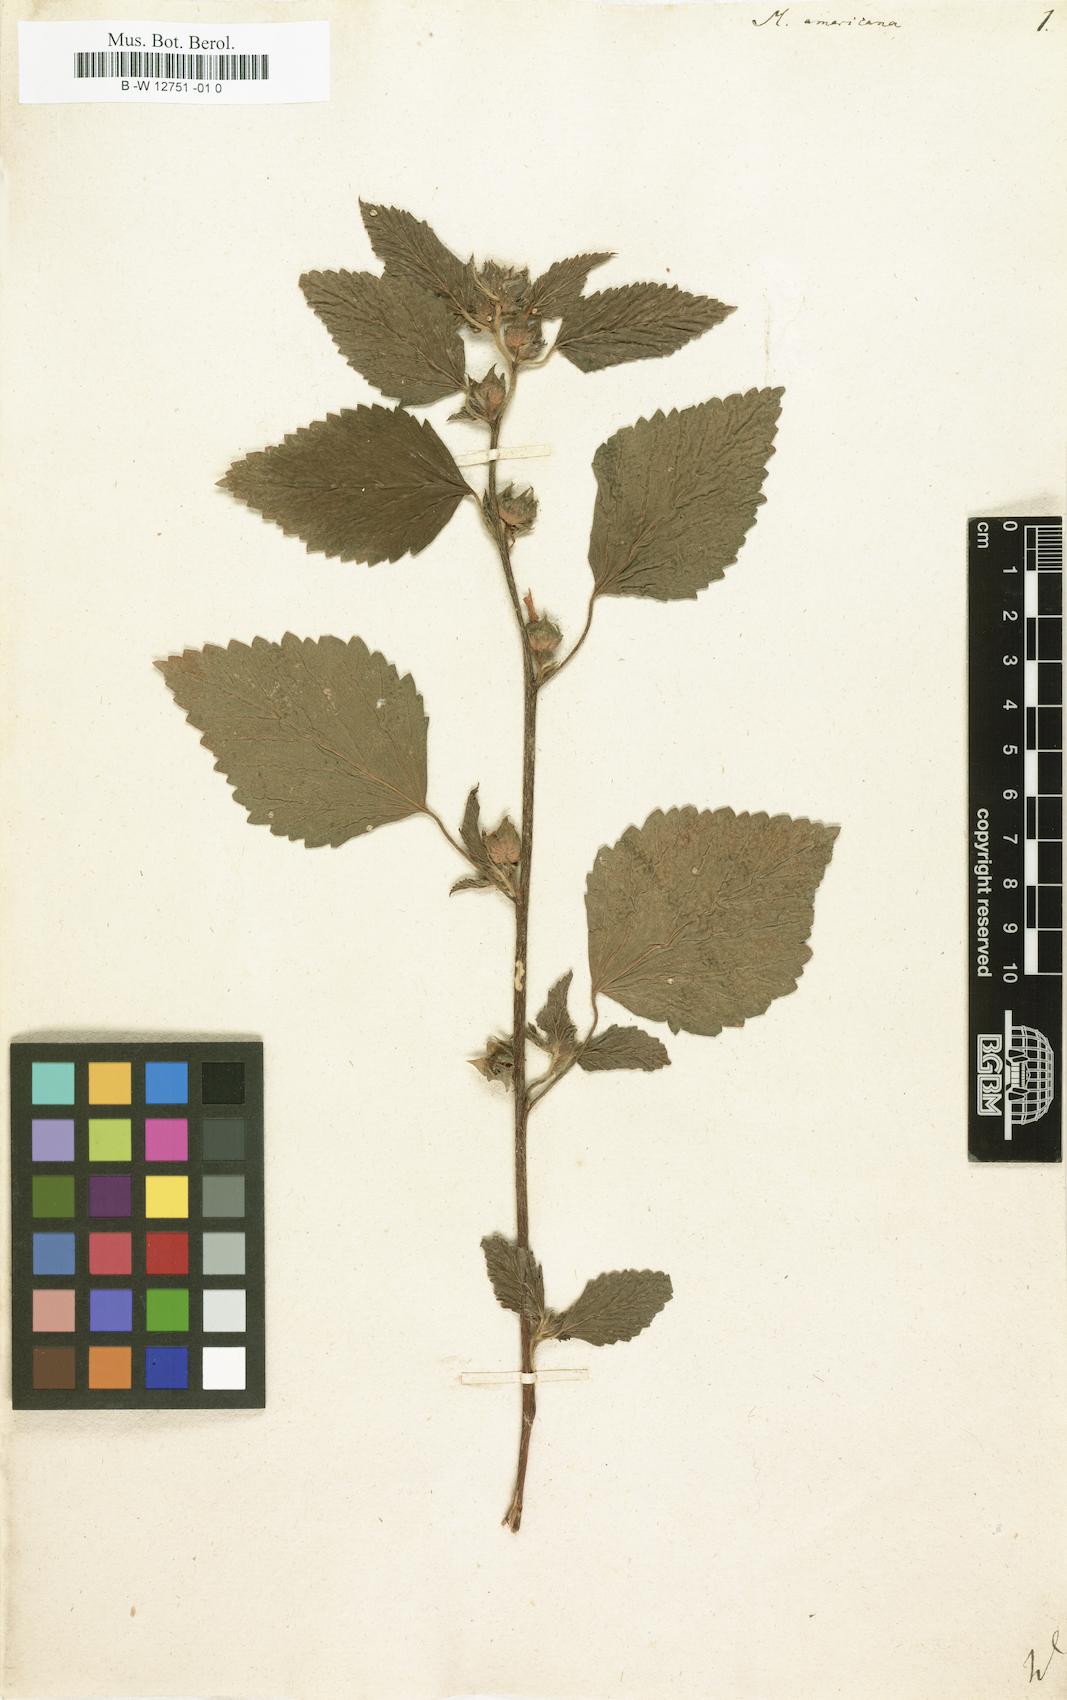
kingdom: Plantae
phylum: Tracheophyta
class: Magnoliopsida
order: Malvales
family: Malvaceae
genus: Malva
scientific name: Malva americana
